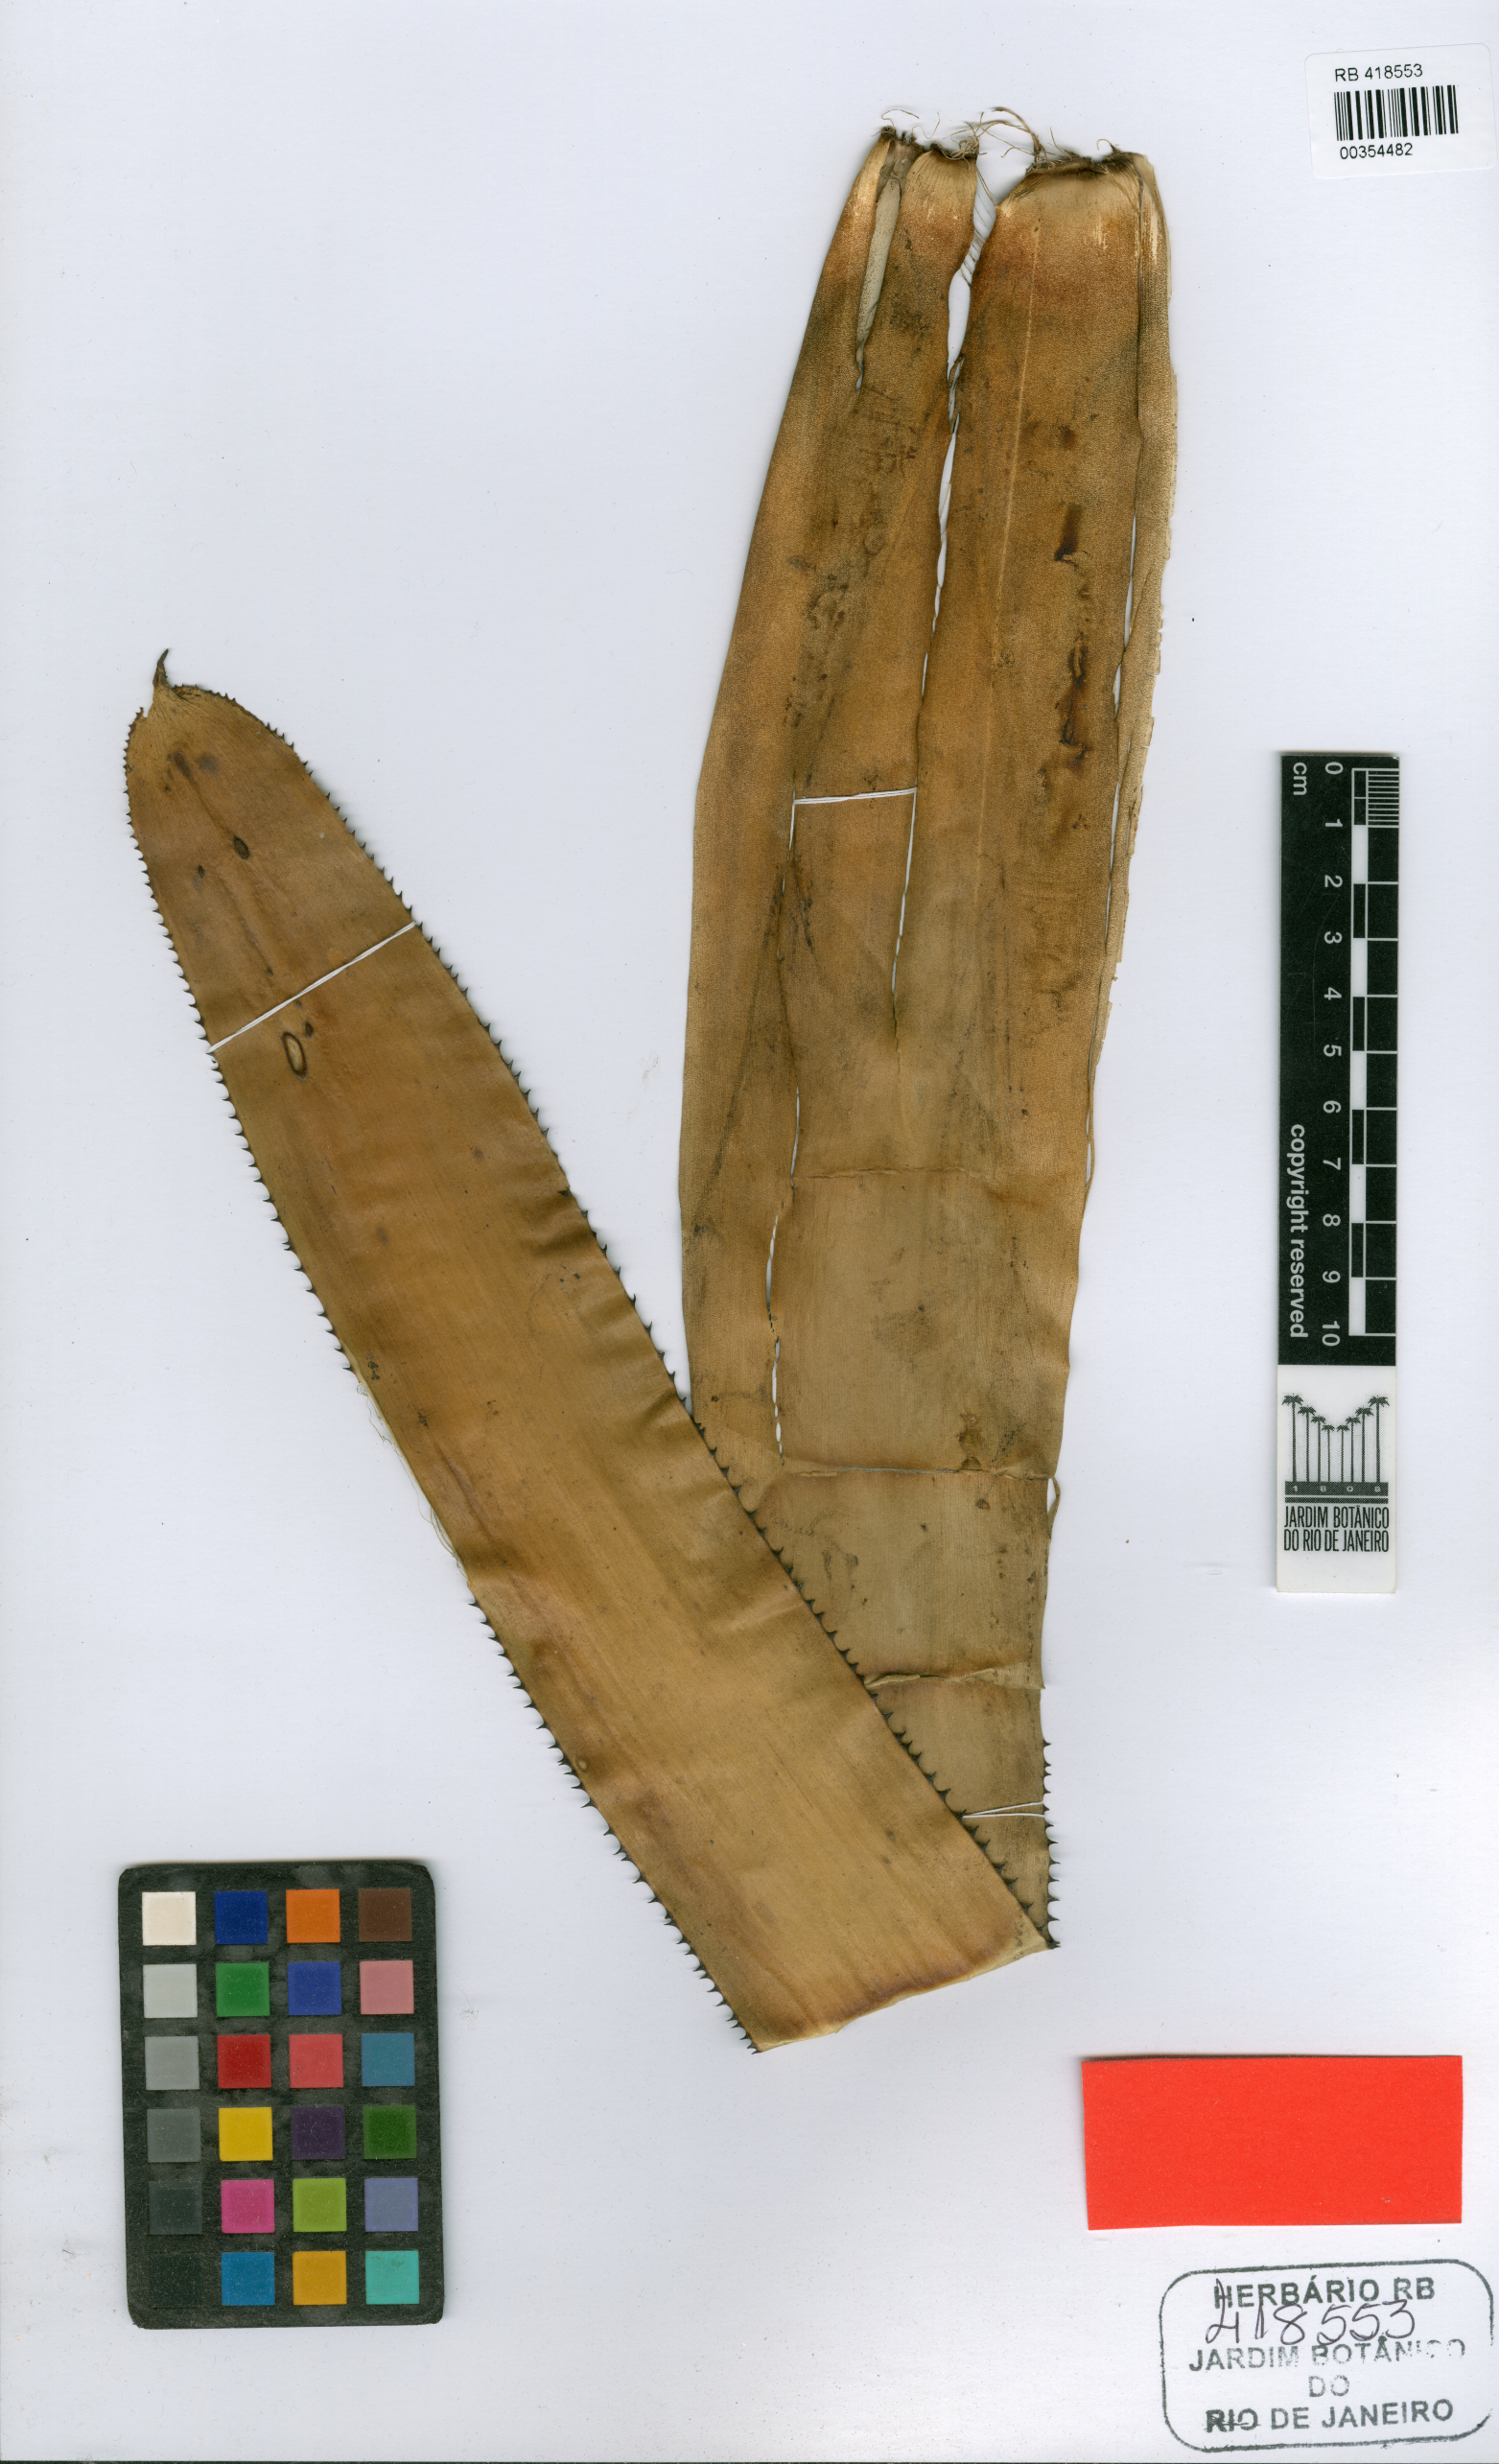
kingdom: Plantae
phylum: Tracheophyta
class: Liliopsida
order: Poales
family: Bromeliaceae
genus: Aechmea
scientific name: Aechmea nudicaulis
